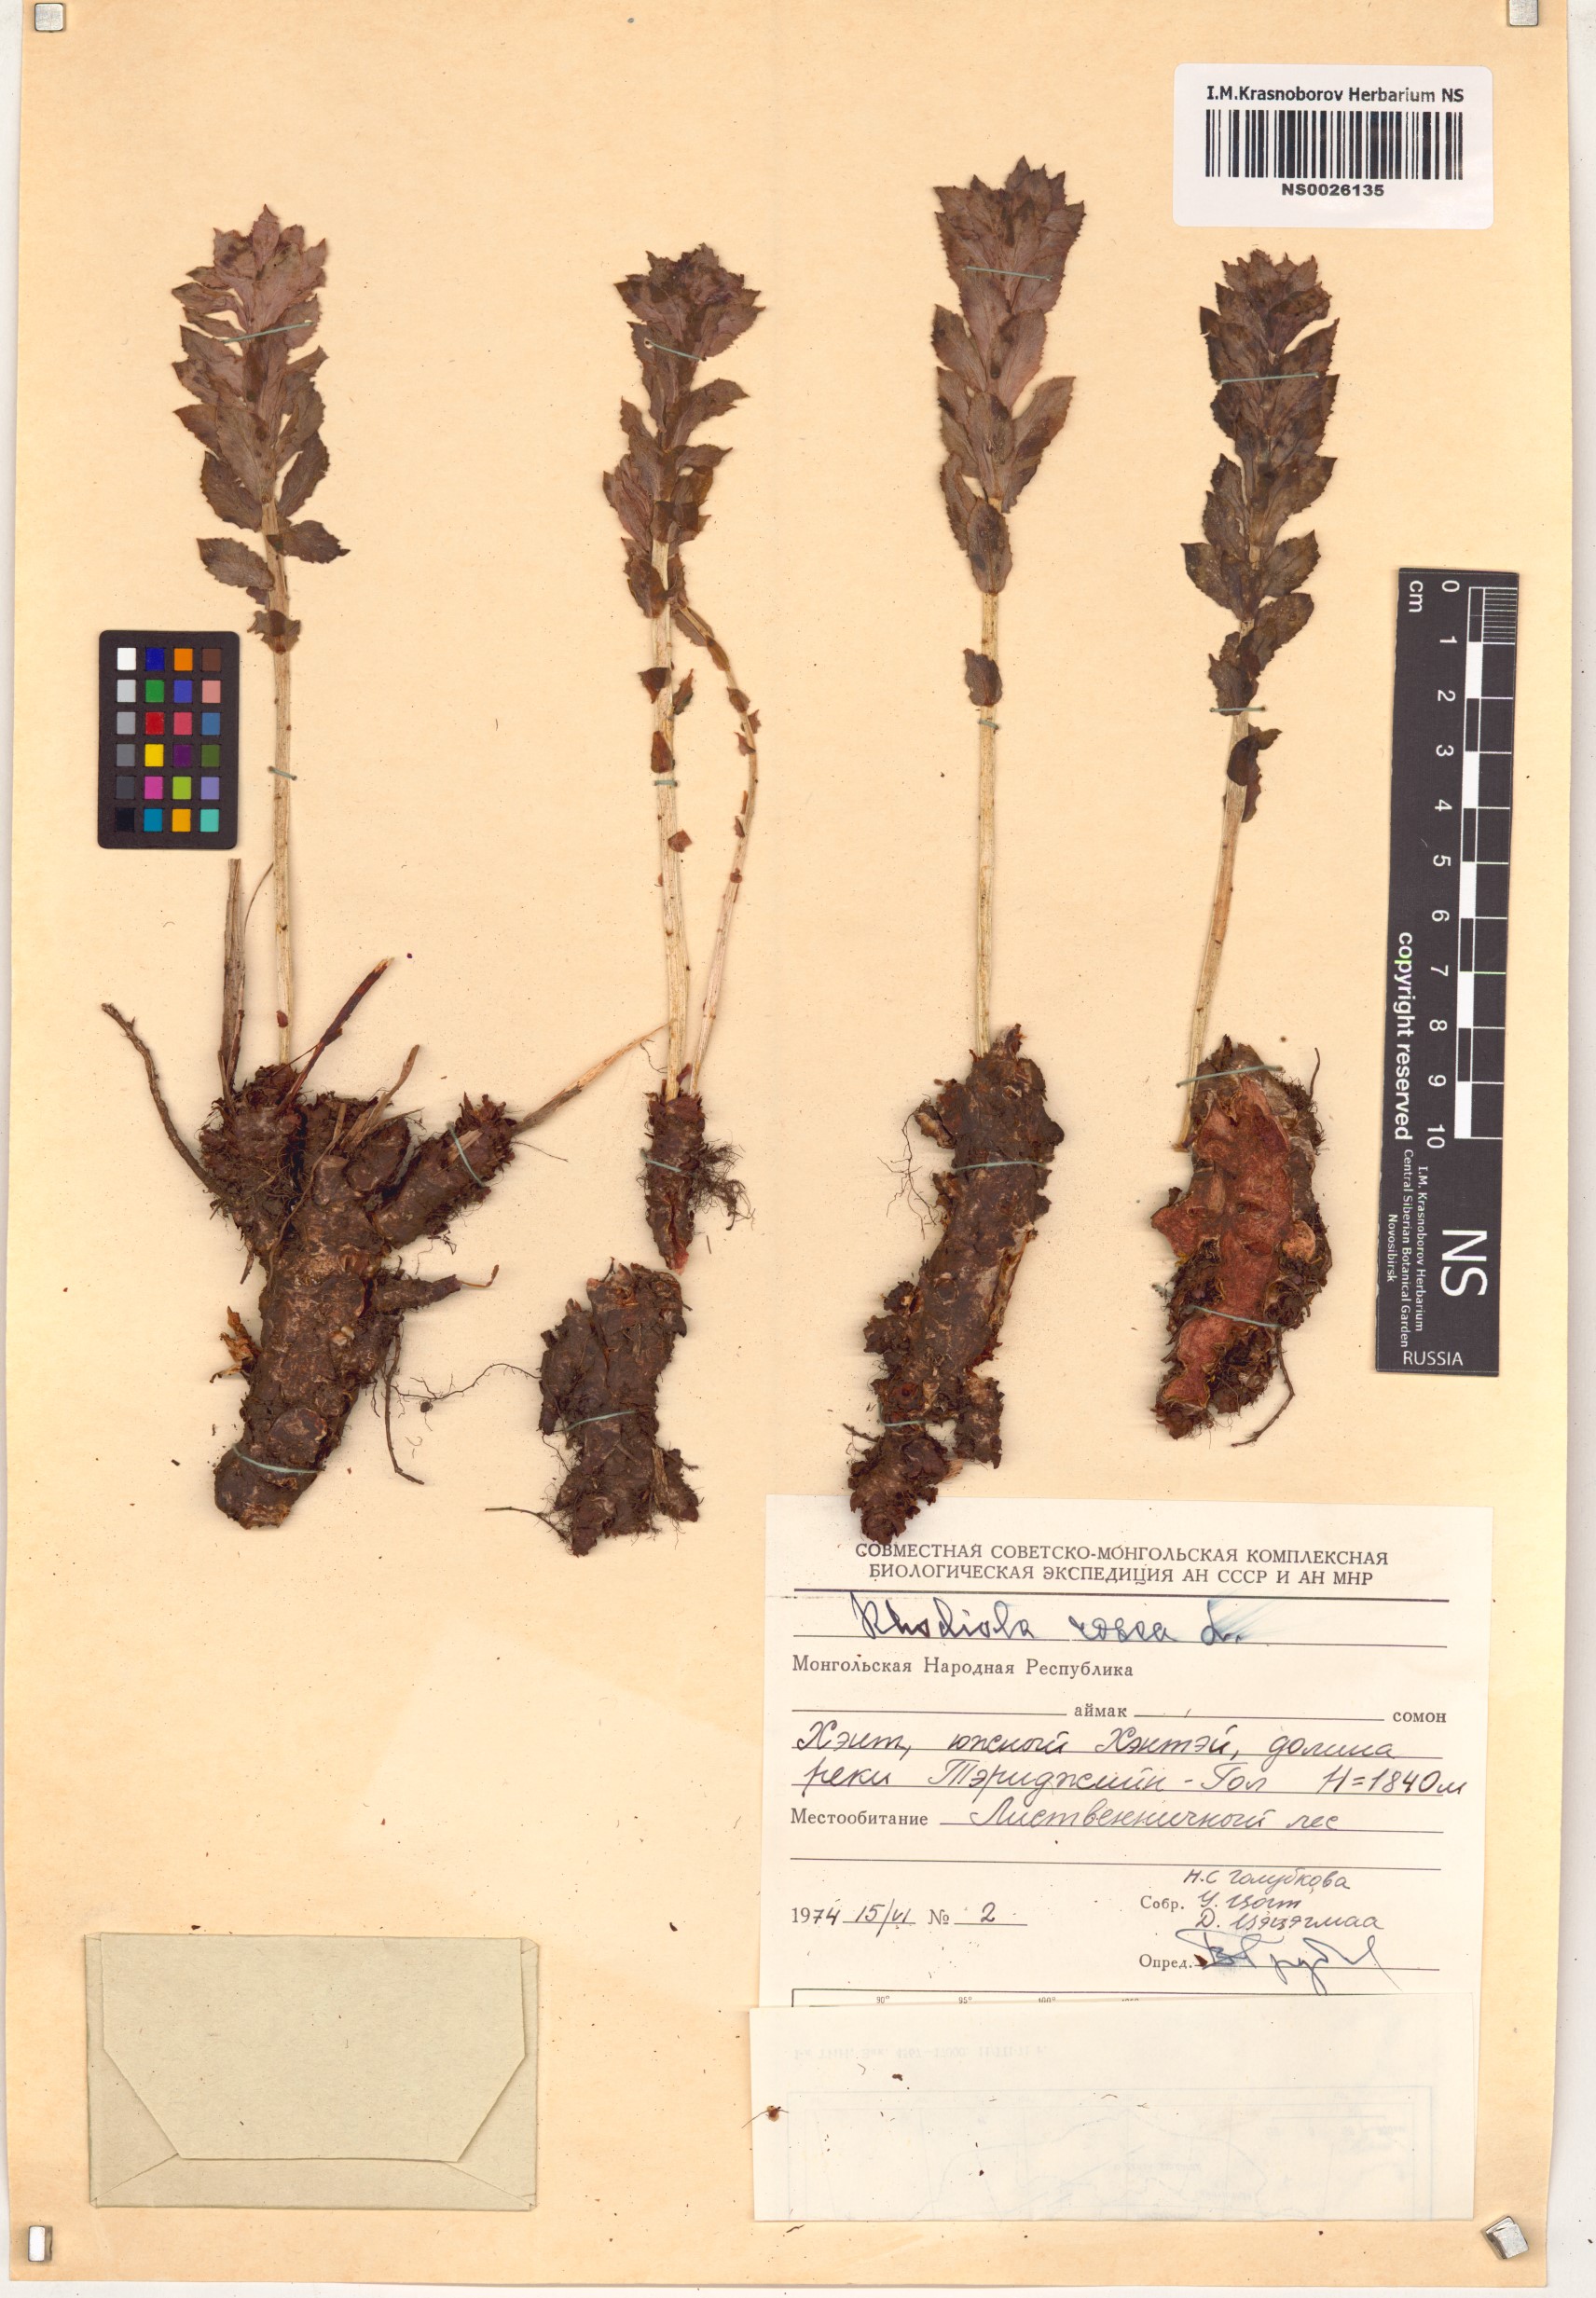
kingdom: Plantae
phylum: Tracheophyta
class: Magnoliopsida
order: Saxifragales
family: Crassulaceae
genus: Rhodiola
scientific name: Rhodiola rosea
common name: Roseroot
